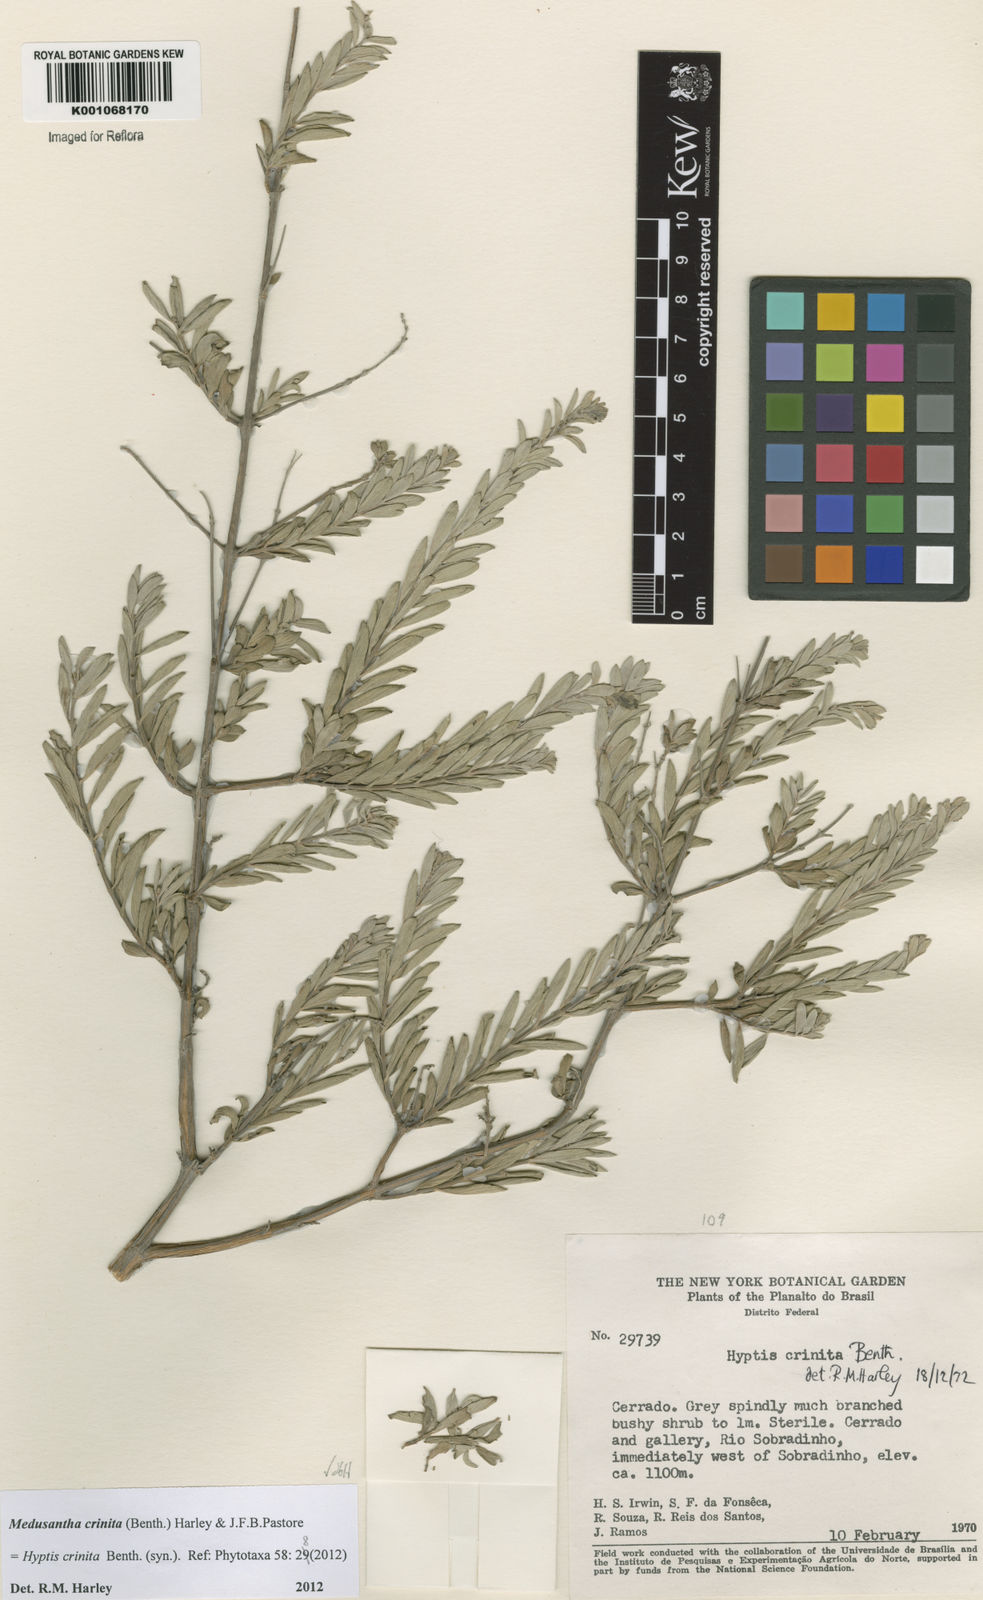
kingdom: Plantae
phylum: Tracheophyta
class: Magnoliopsida
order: Lamiales
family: Lamiaceae
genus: Medusantha
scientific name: Medusantha crinita
